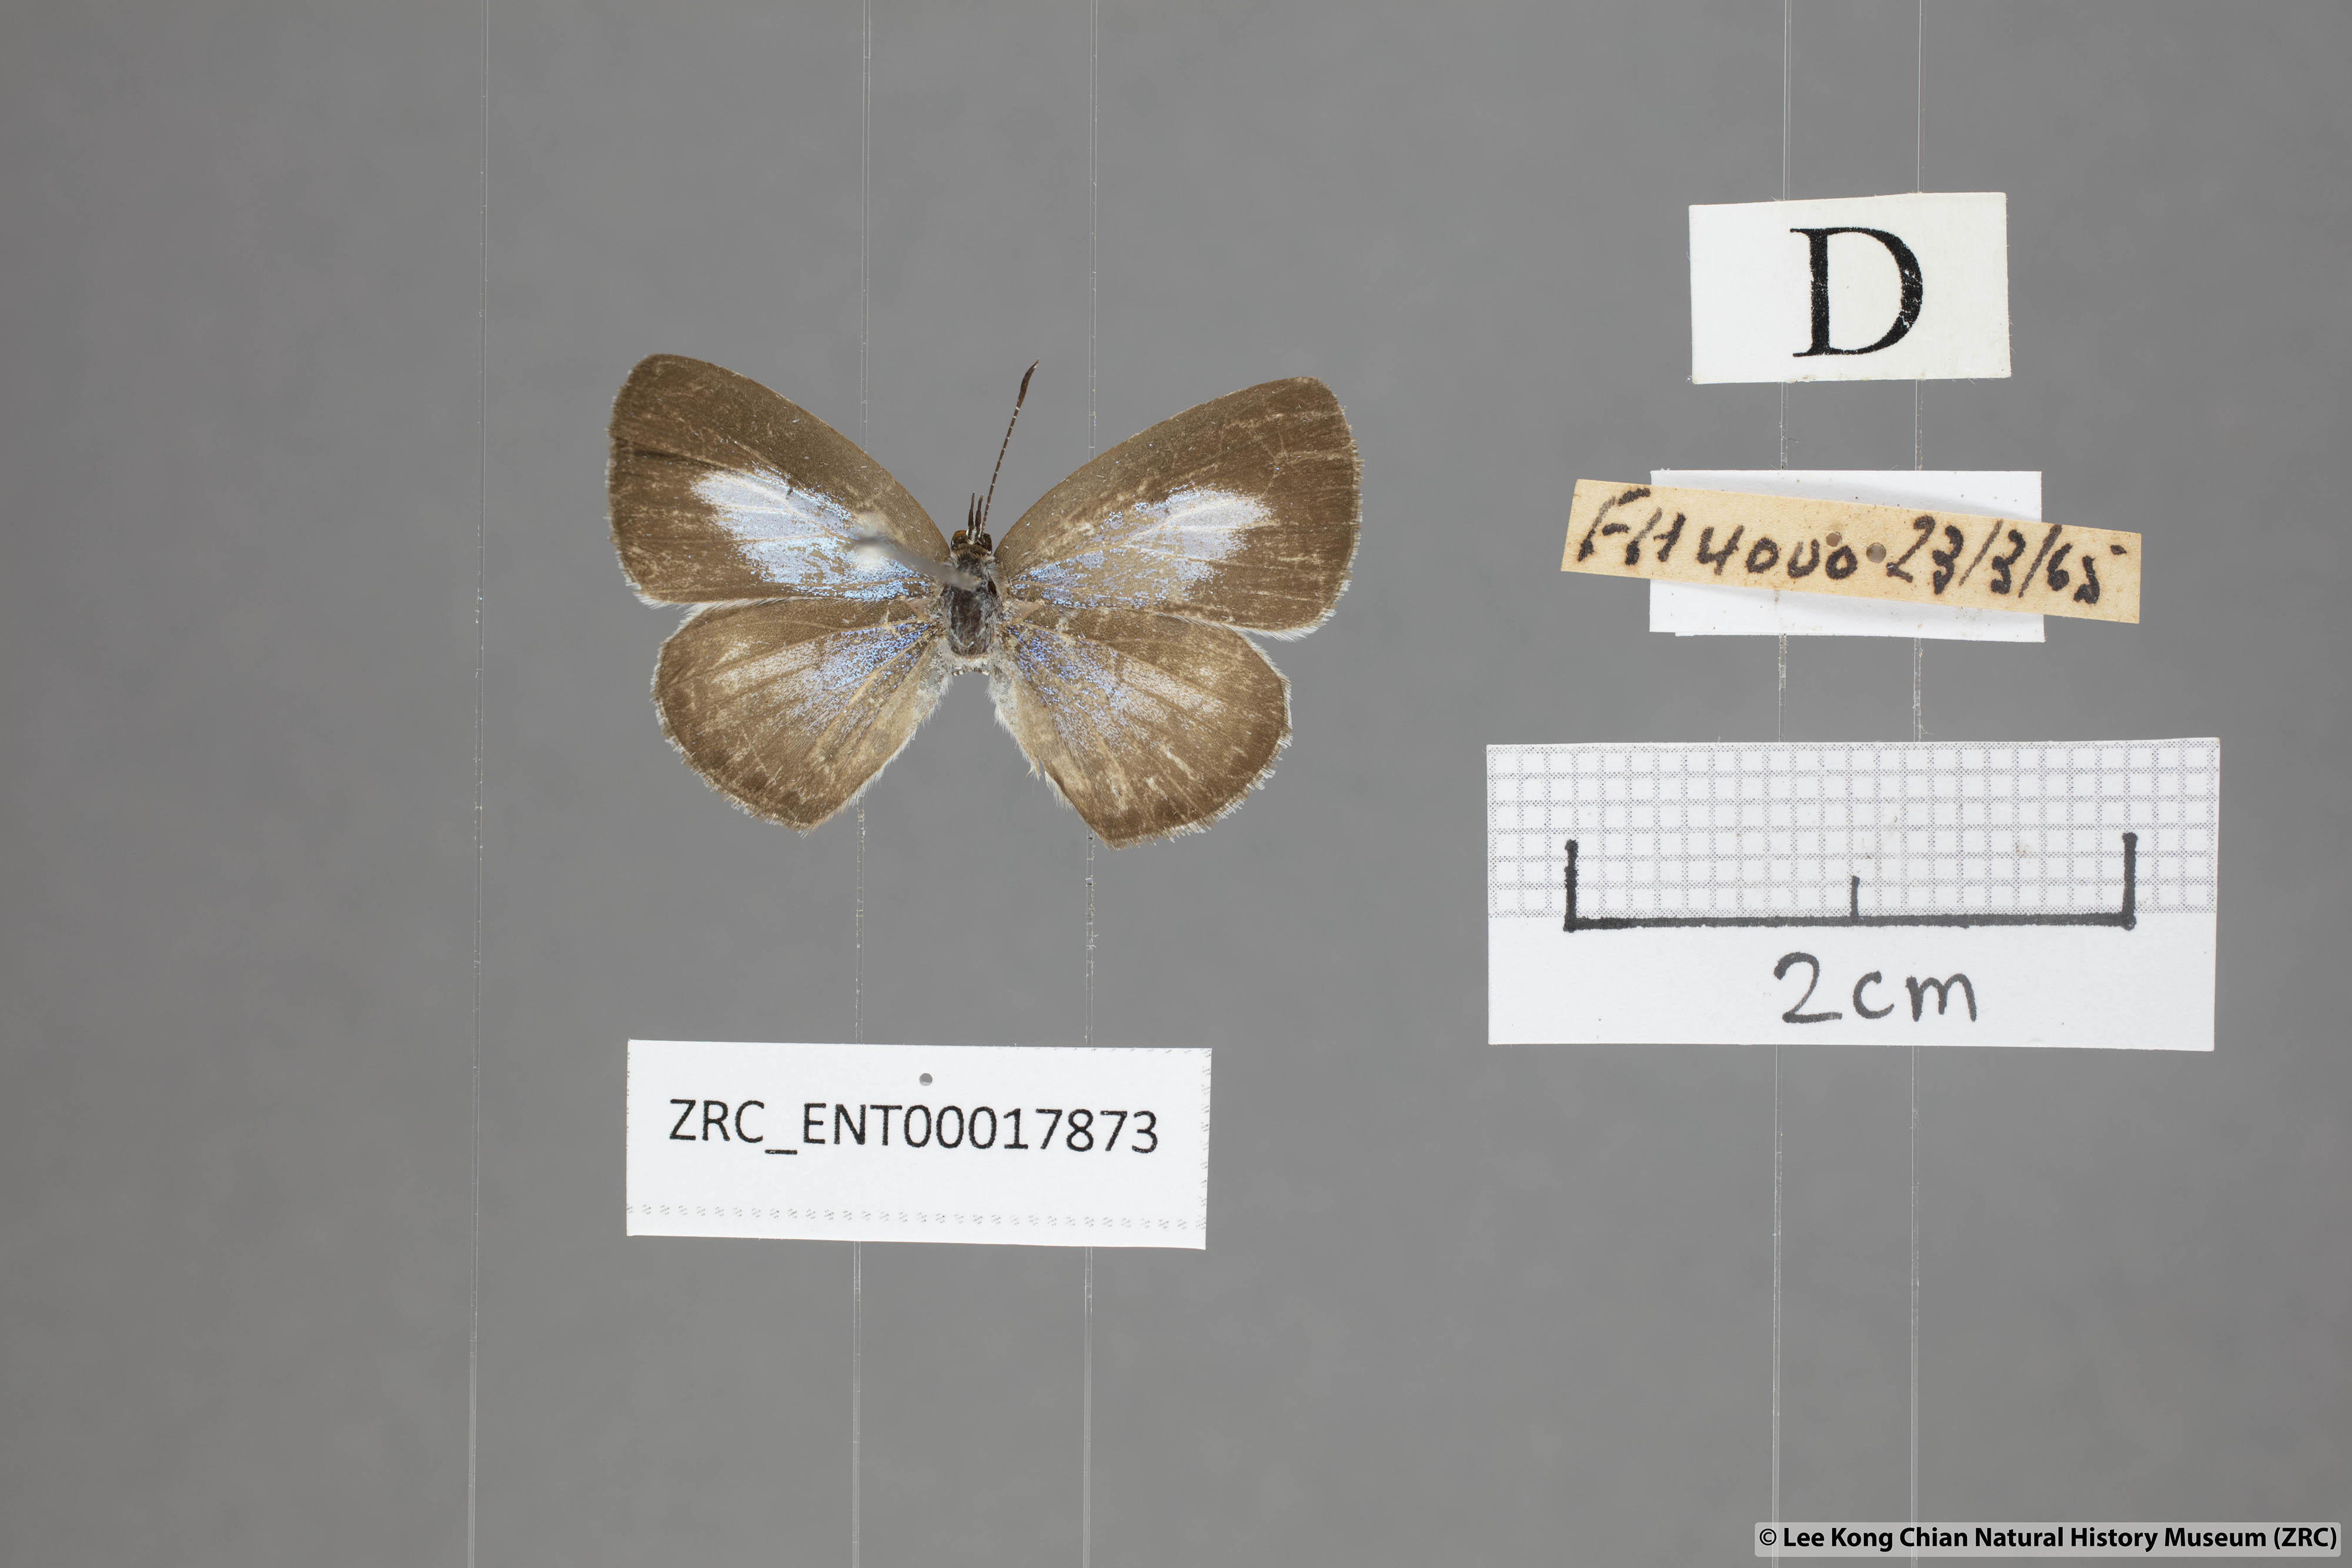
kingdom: Animalia
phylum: Arthropoda
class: Insecta
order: Lepidoptera
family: Lycaenidae
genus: Acytolepis
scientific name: Acytolepis puspa
